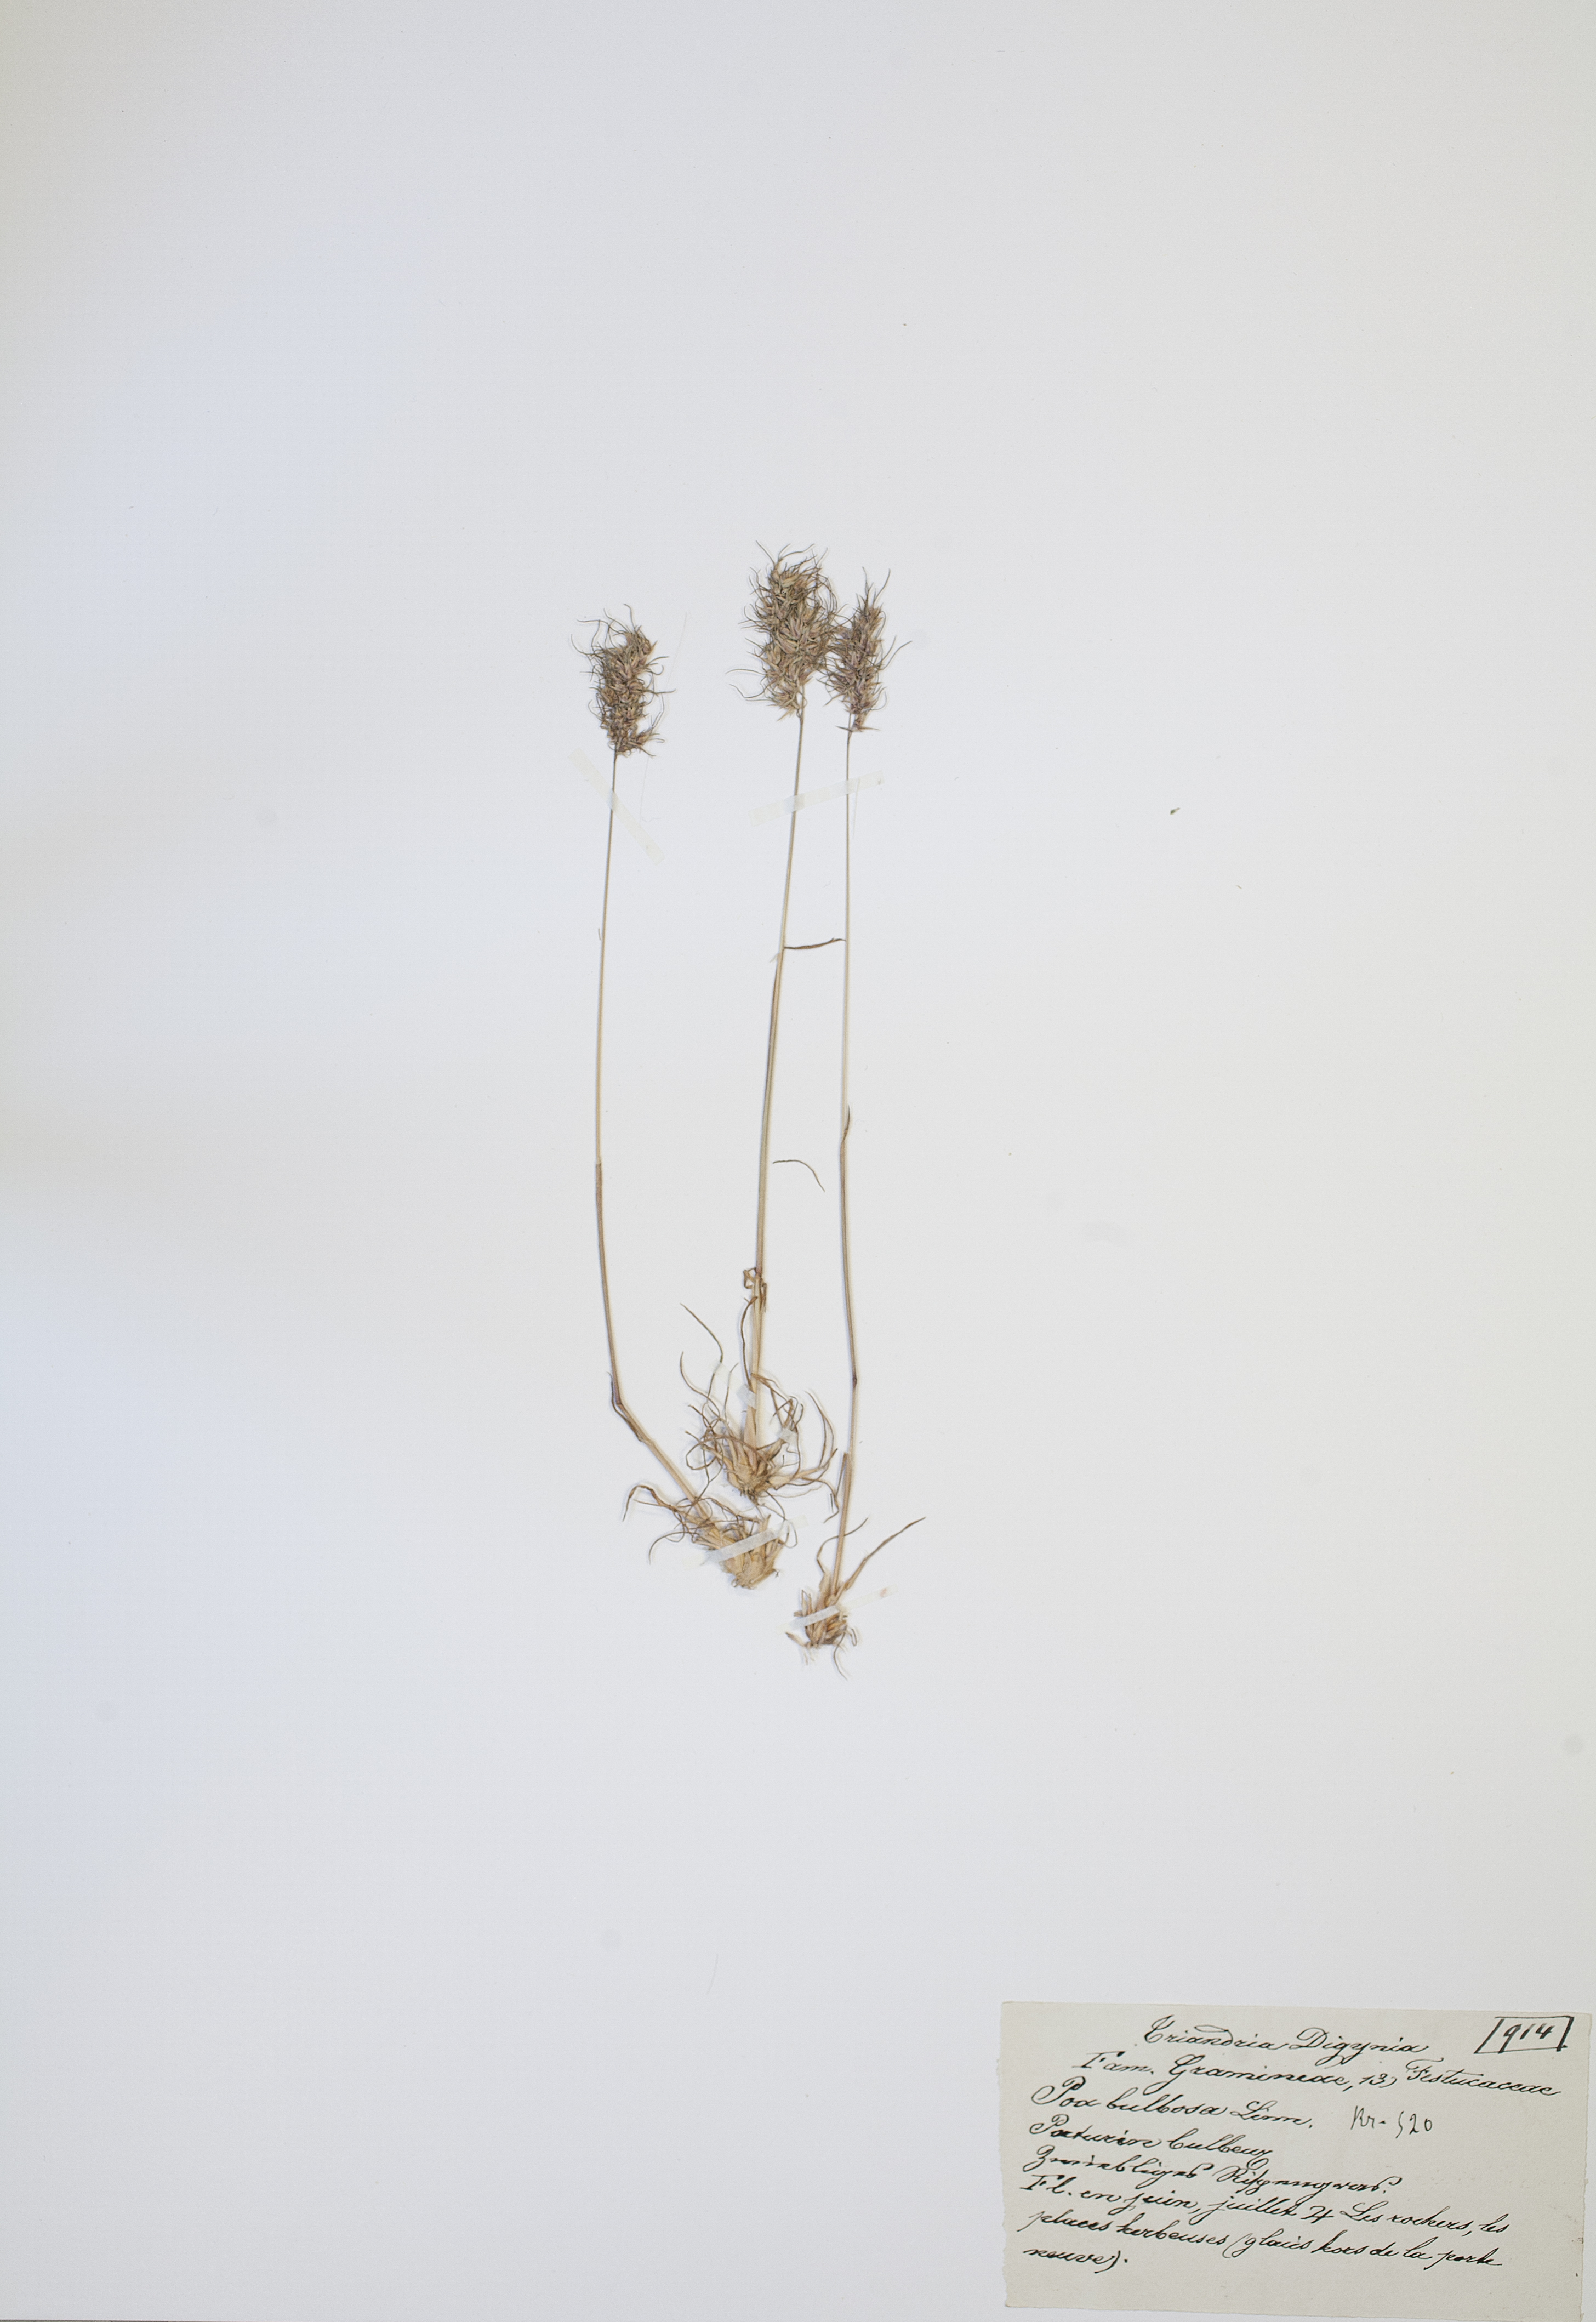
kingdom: Plantae
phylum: Tracheophyta
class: Liliopsida
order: Poales
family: Poaceae
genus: Poa
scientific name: Poa bulbosa
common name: Bulbous bluegrass
